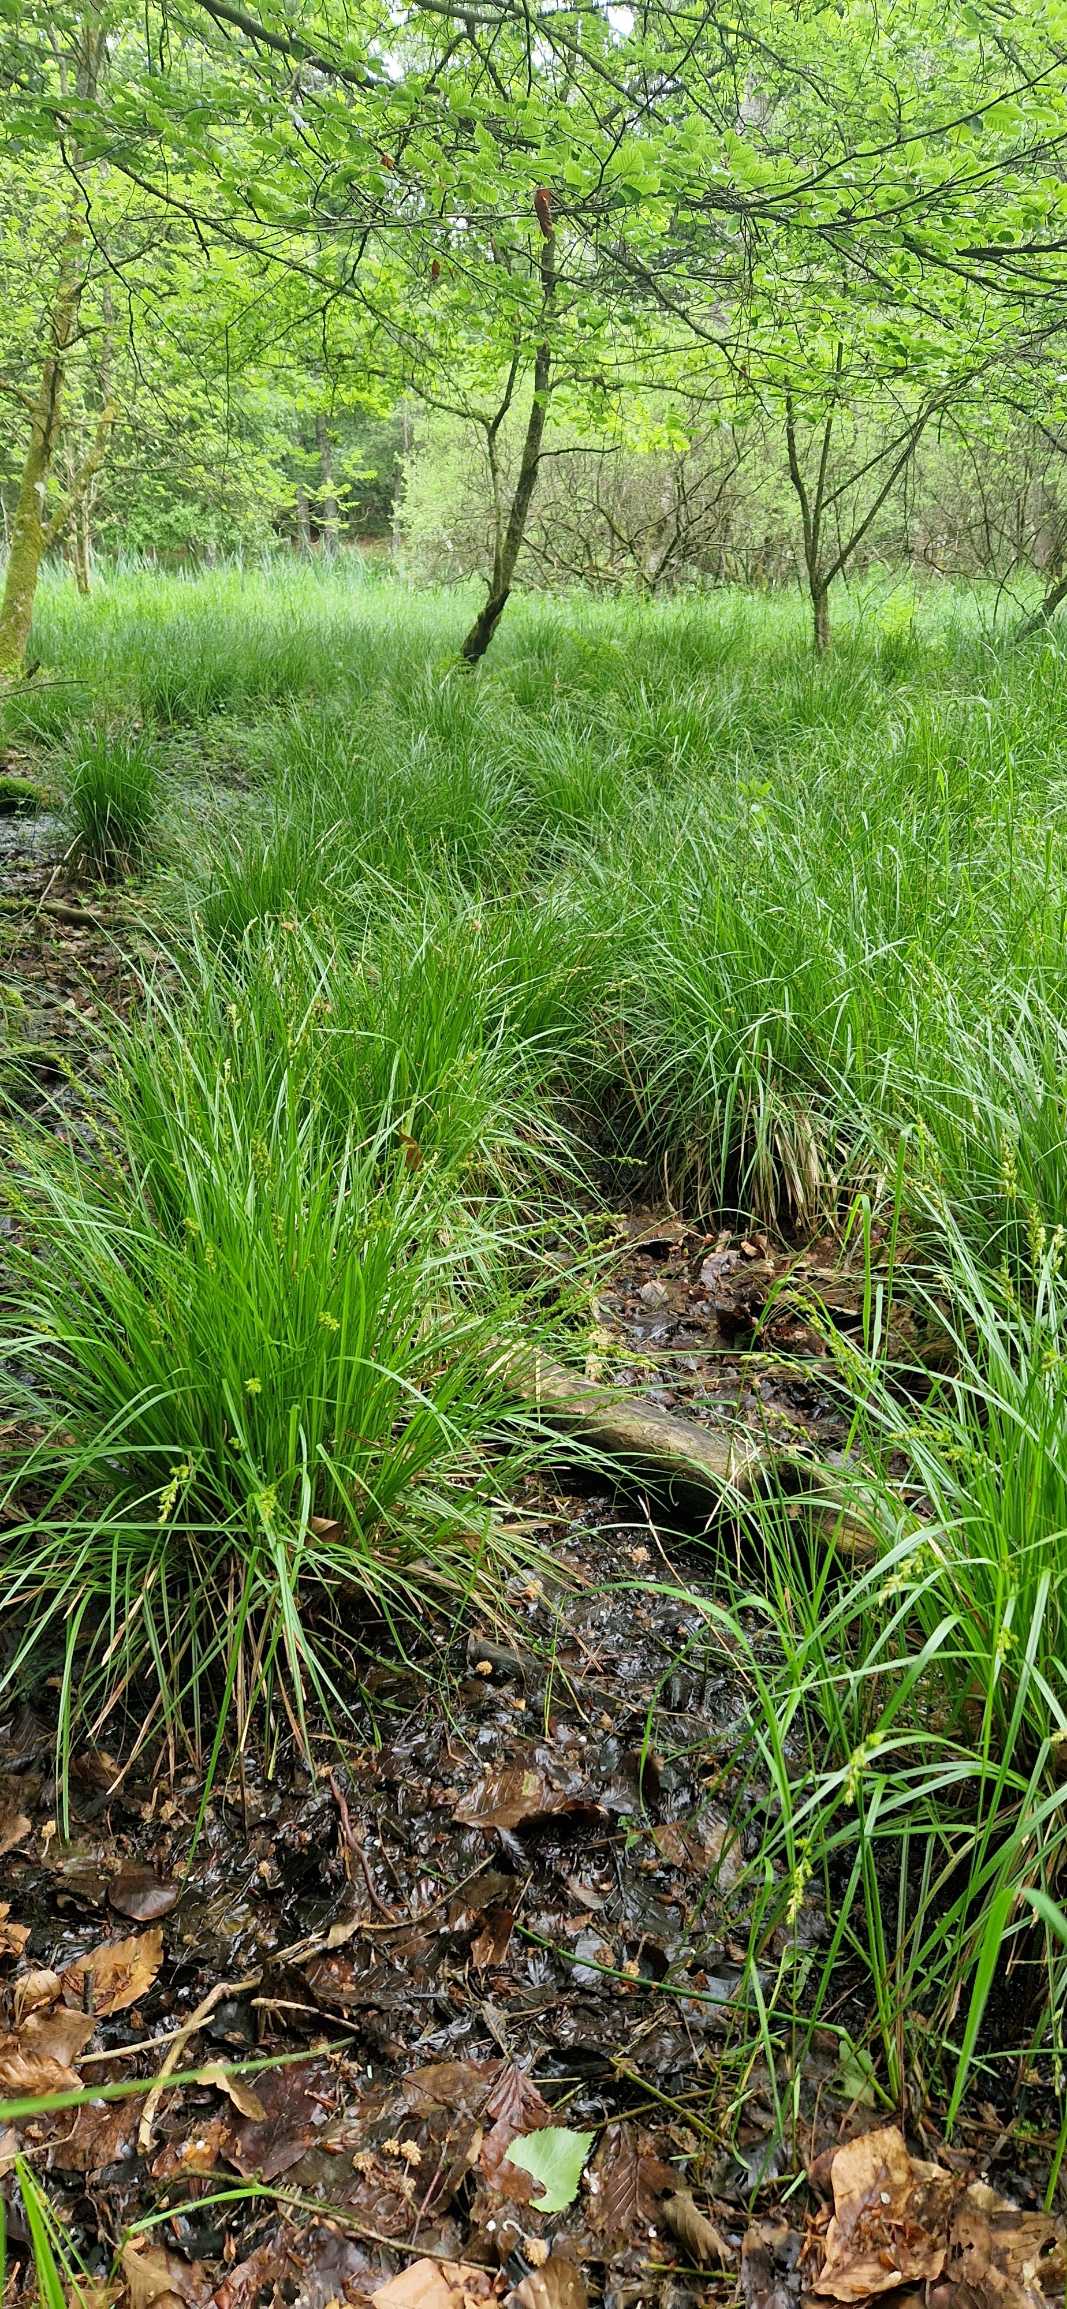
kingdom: Plantae
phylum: Tracheophyta
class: Liliopsida
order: Poales
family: Cyperaceae
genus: Carex
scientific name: Carex elongata
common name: Forlænget star
